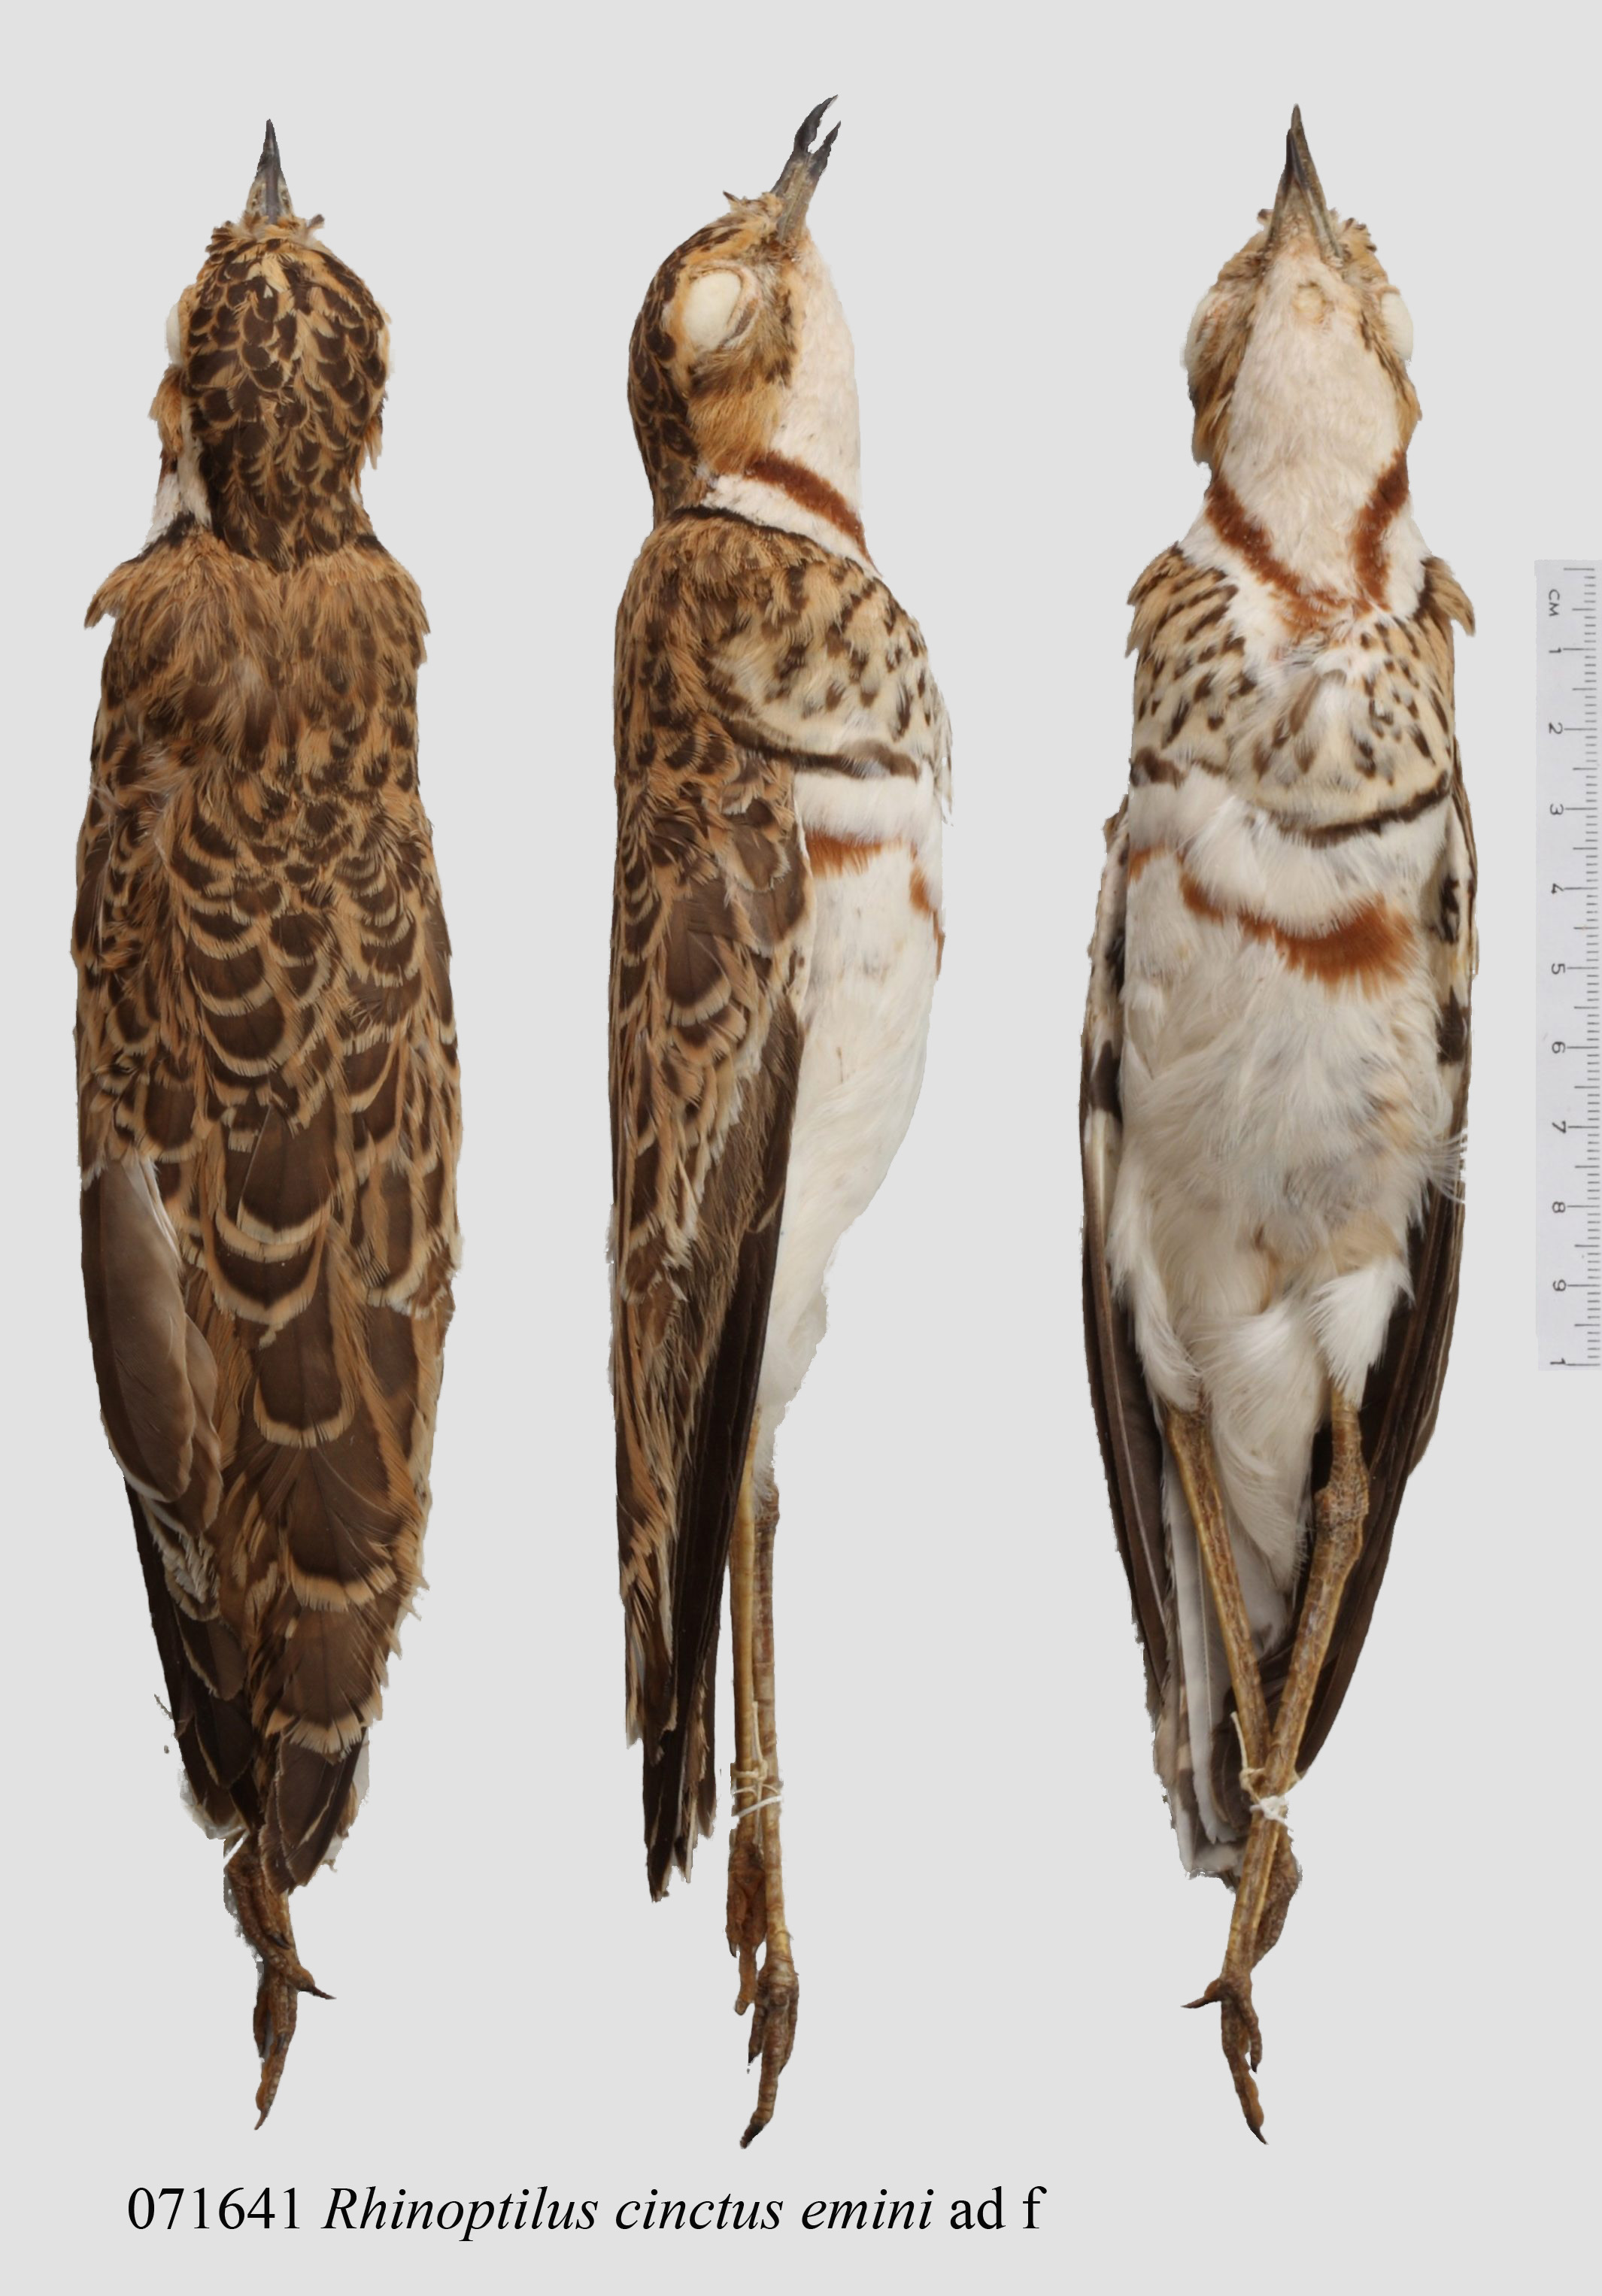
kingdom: Animalia
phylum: Chordata
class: Aves
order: Charadriiformes
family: Glareolidae
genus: Rhinoptilus
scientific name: Rhinoptilus cinctus
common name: Three-banded courser
